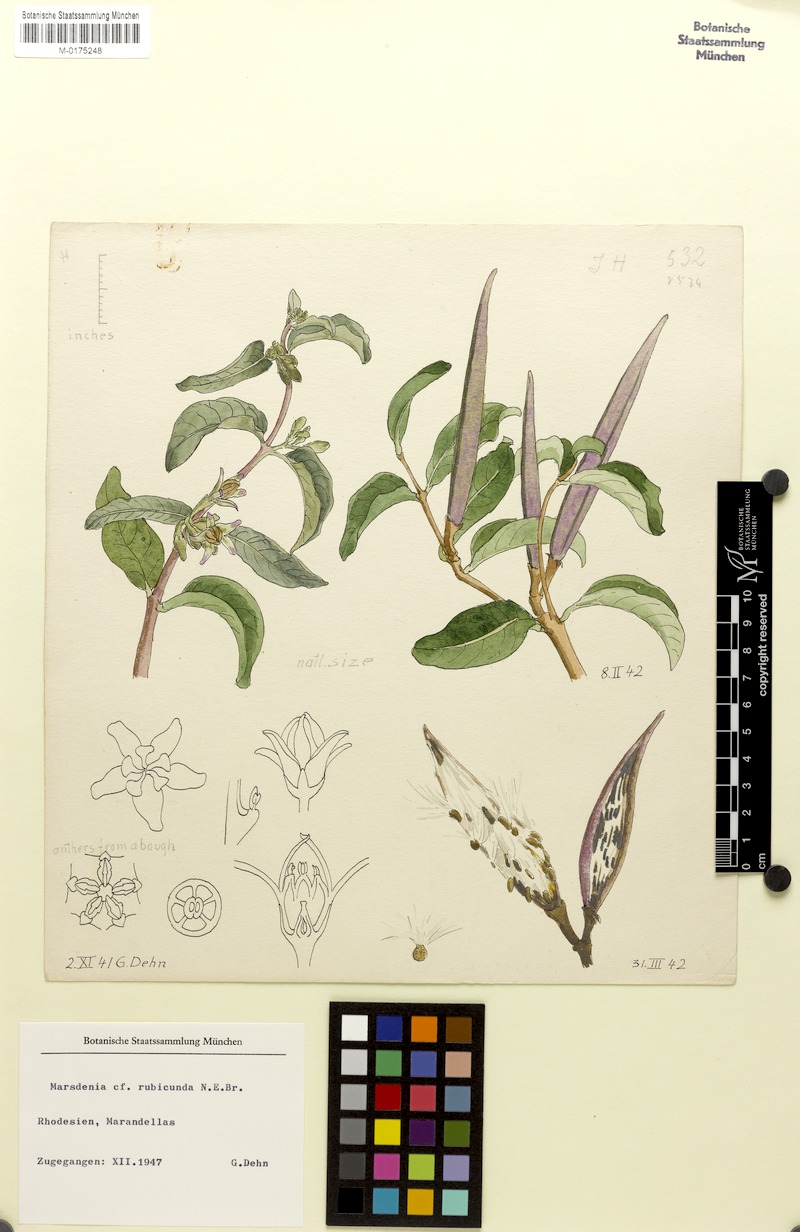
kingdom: Plantae
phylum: Tracheophyta
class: Magnoliopsida
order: Gentianales
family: Apocynaceae
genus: Stephanotis
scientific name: Stephanotis rubicunda
